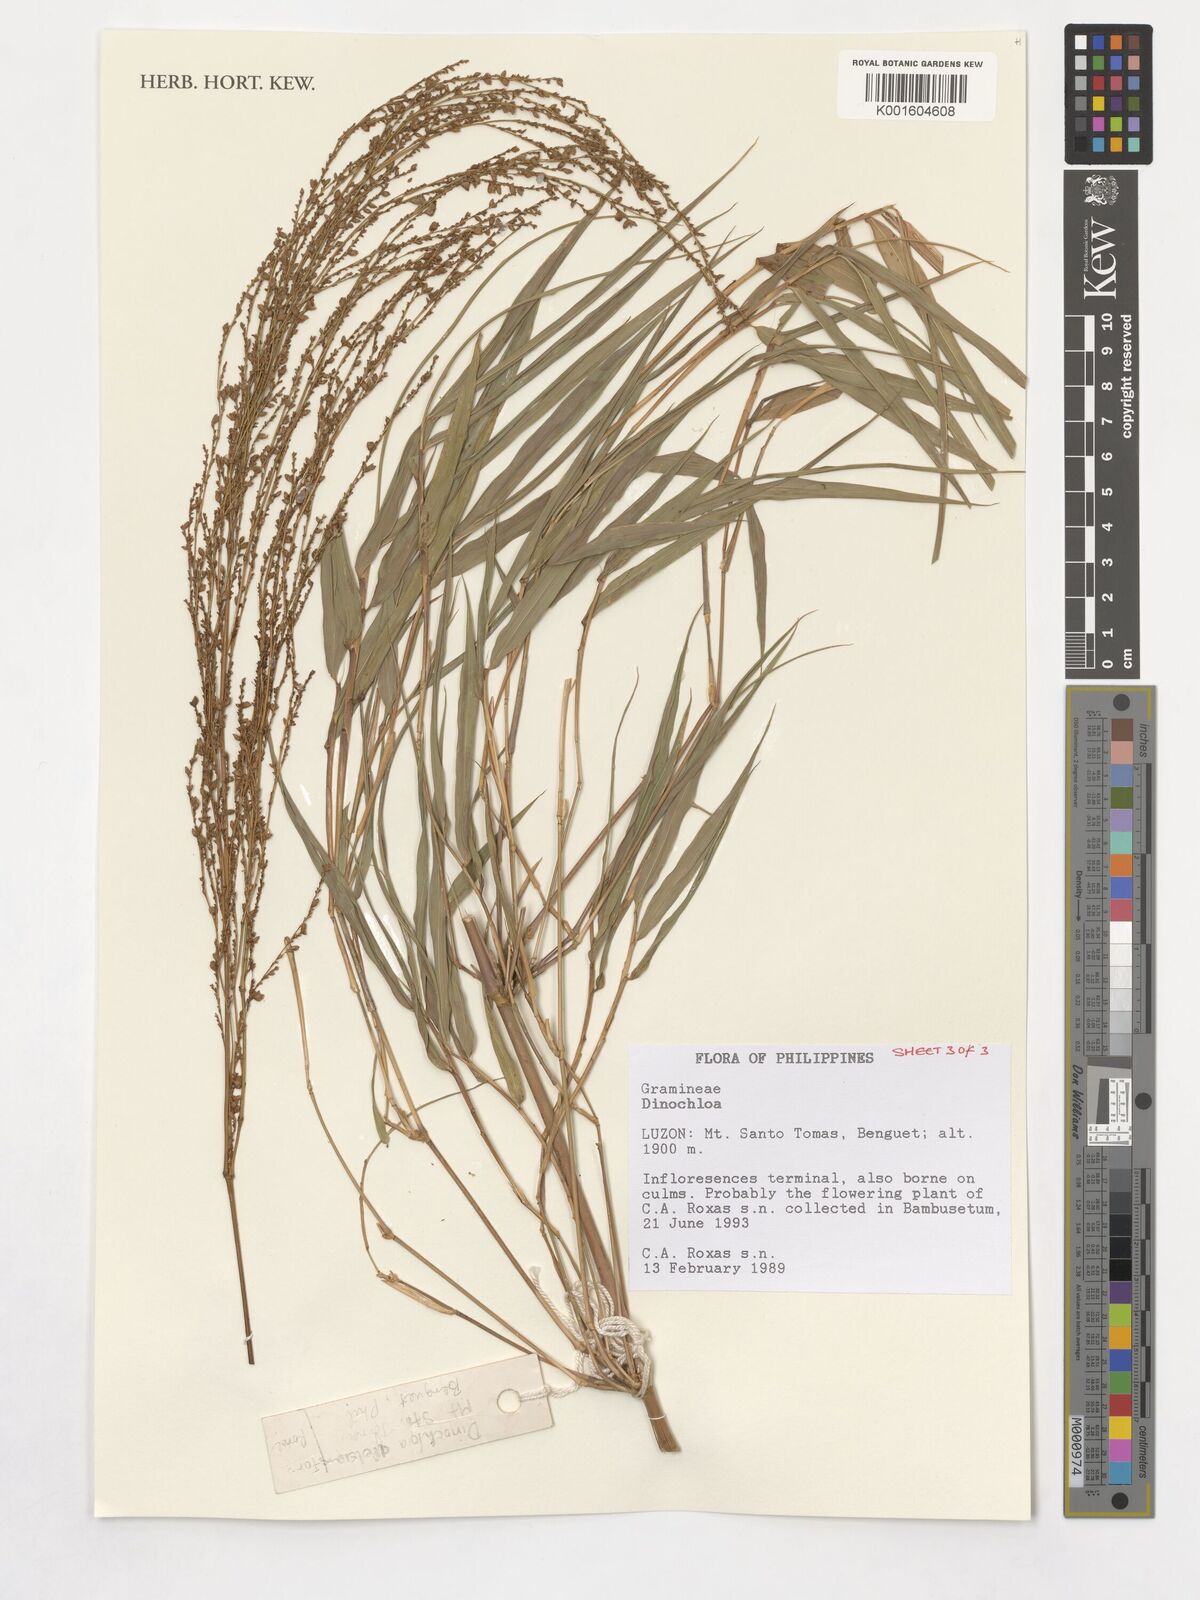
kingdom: Plantae
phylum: Tracheophyta
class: Liliopsida
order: Poales
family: Poaceae
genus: Dinochloa
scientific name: Dinochloa
